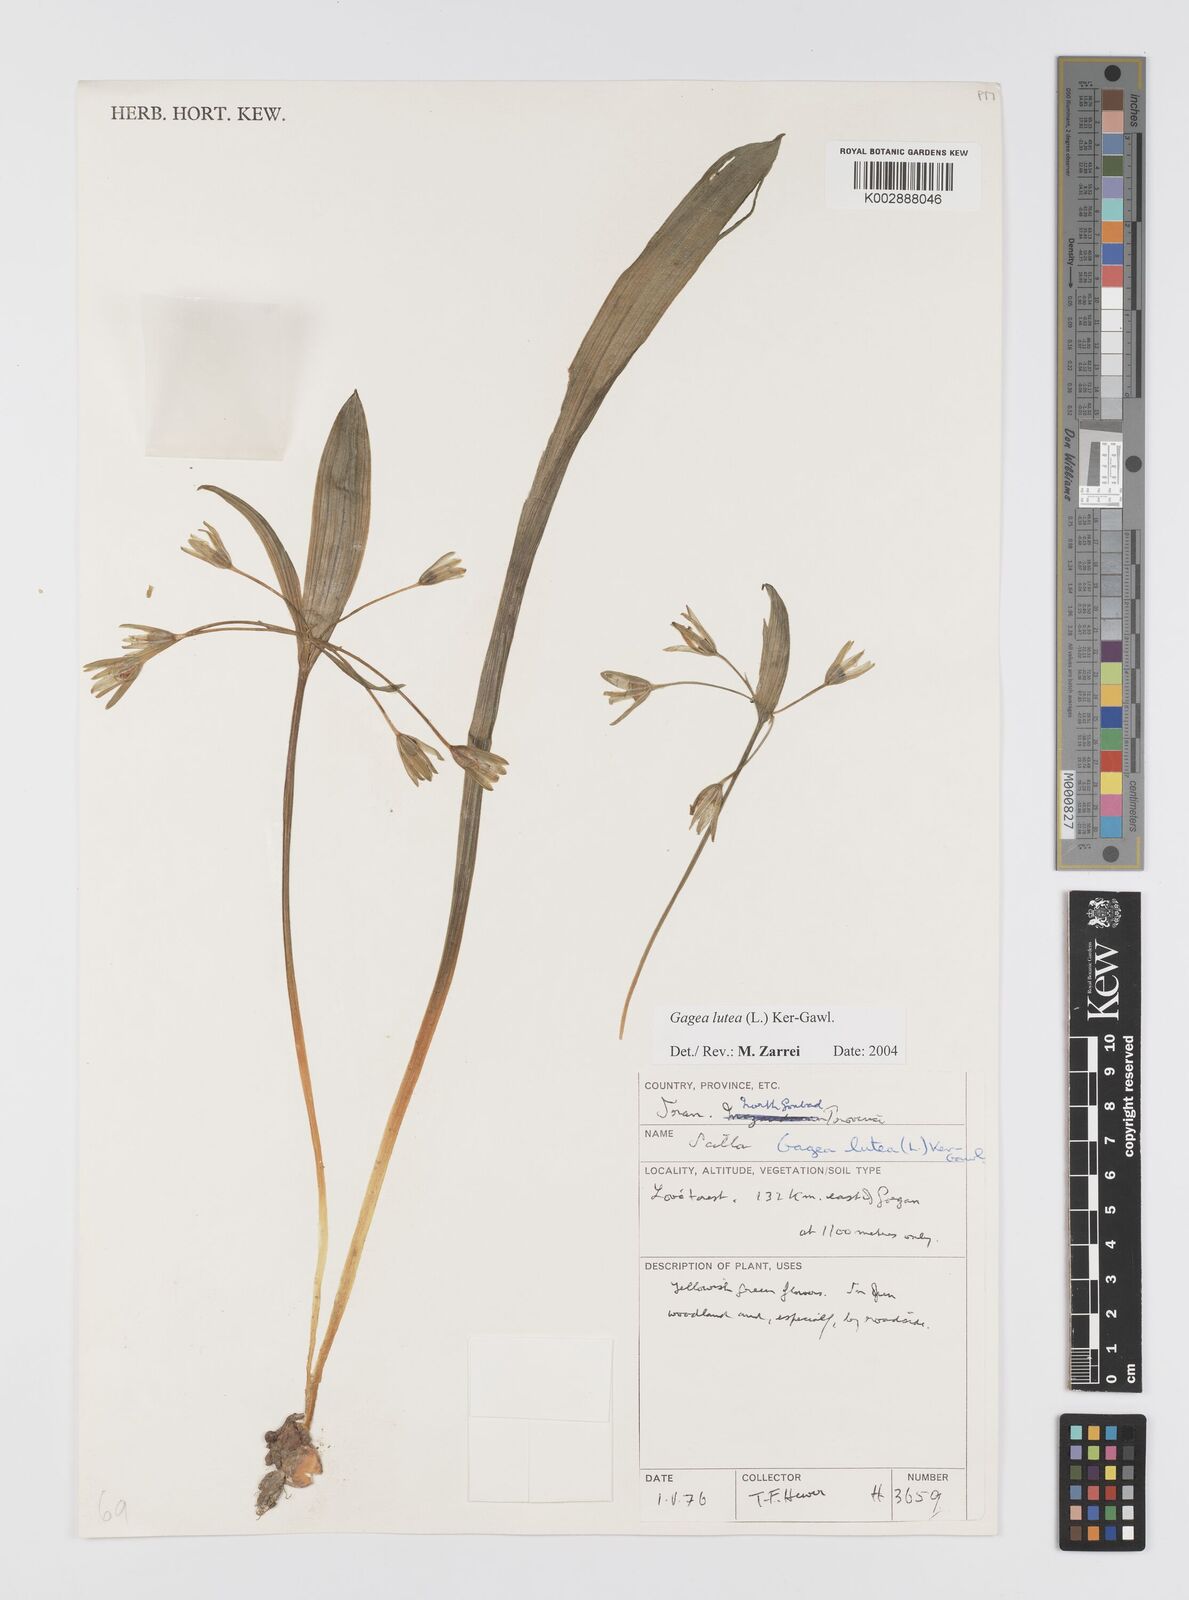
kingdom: Plantae
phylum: Tracheophyta
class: Liliopsida
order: Liliales
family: Liliaceae
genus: Gagea
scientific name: Gagea lutea
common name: Yellow star-of-bethlehem
